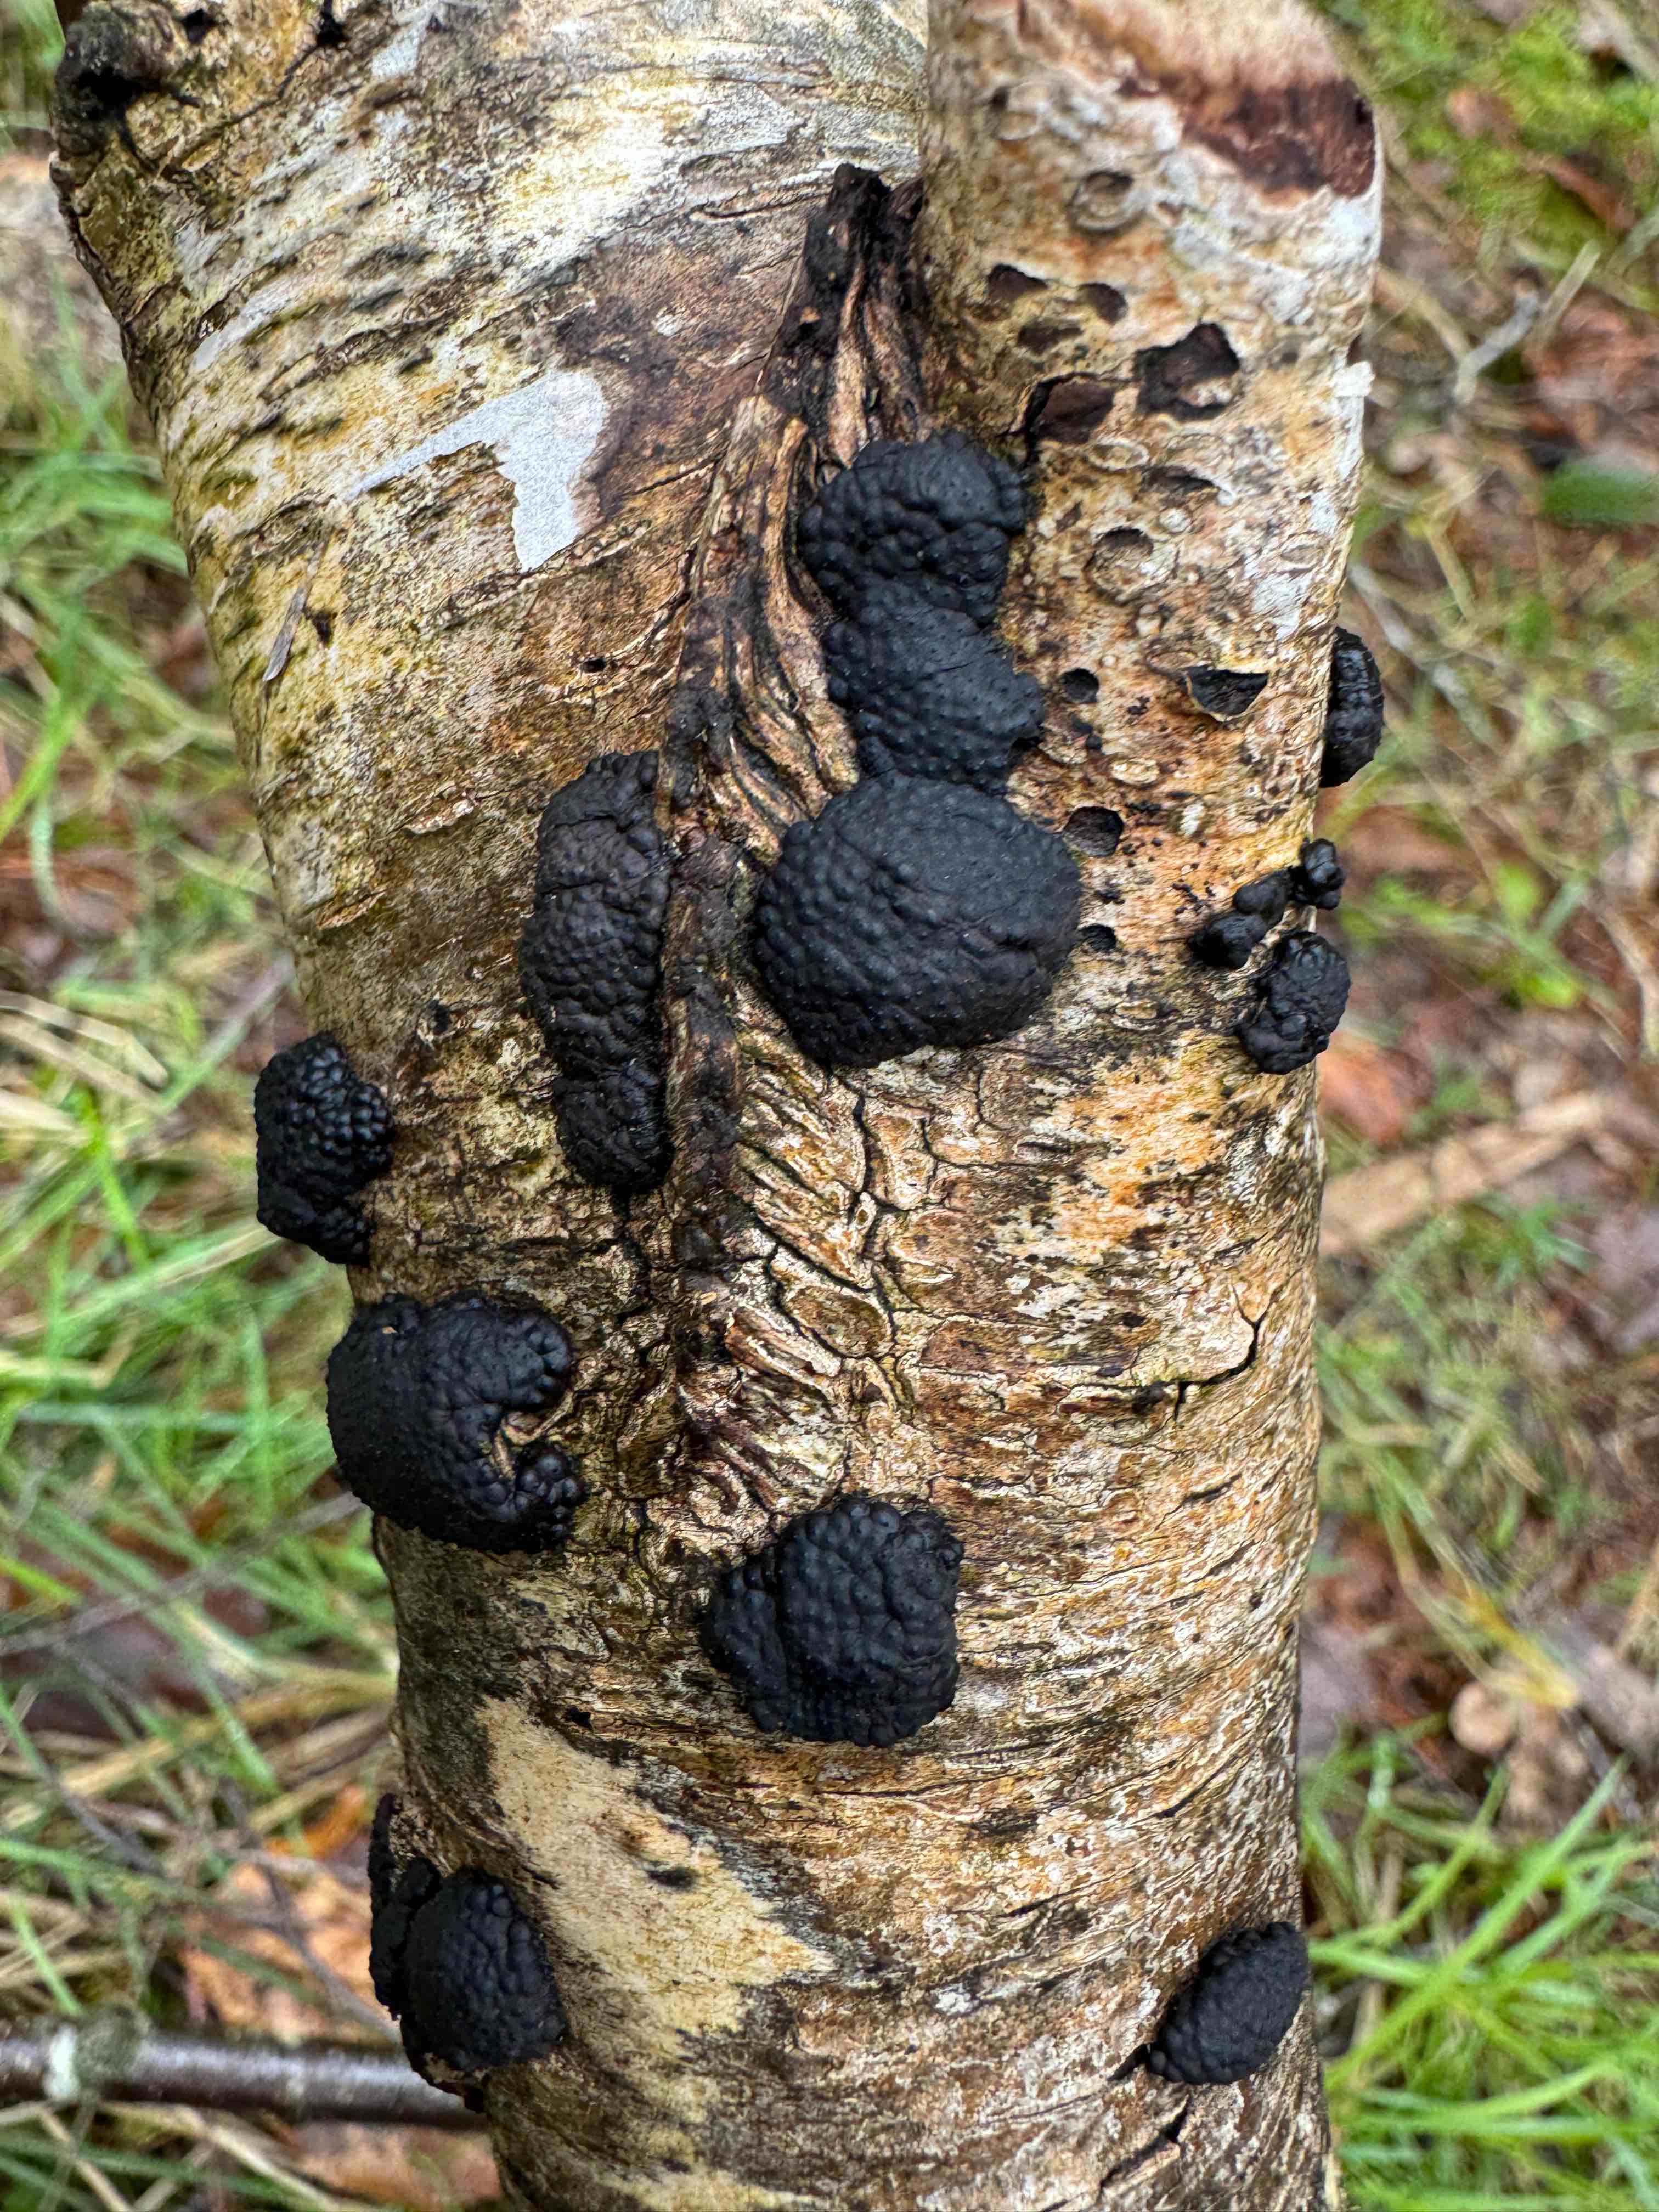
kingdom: Fungi
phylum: Ascomycota
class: Sordariomycetes
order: Xylariales
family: Hypoxylaceae
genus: Jackrogersella
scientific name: Jackrogersella multiformis
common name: foranderlig kulbær
